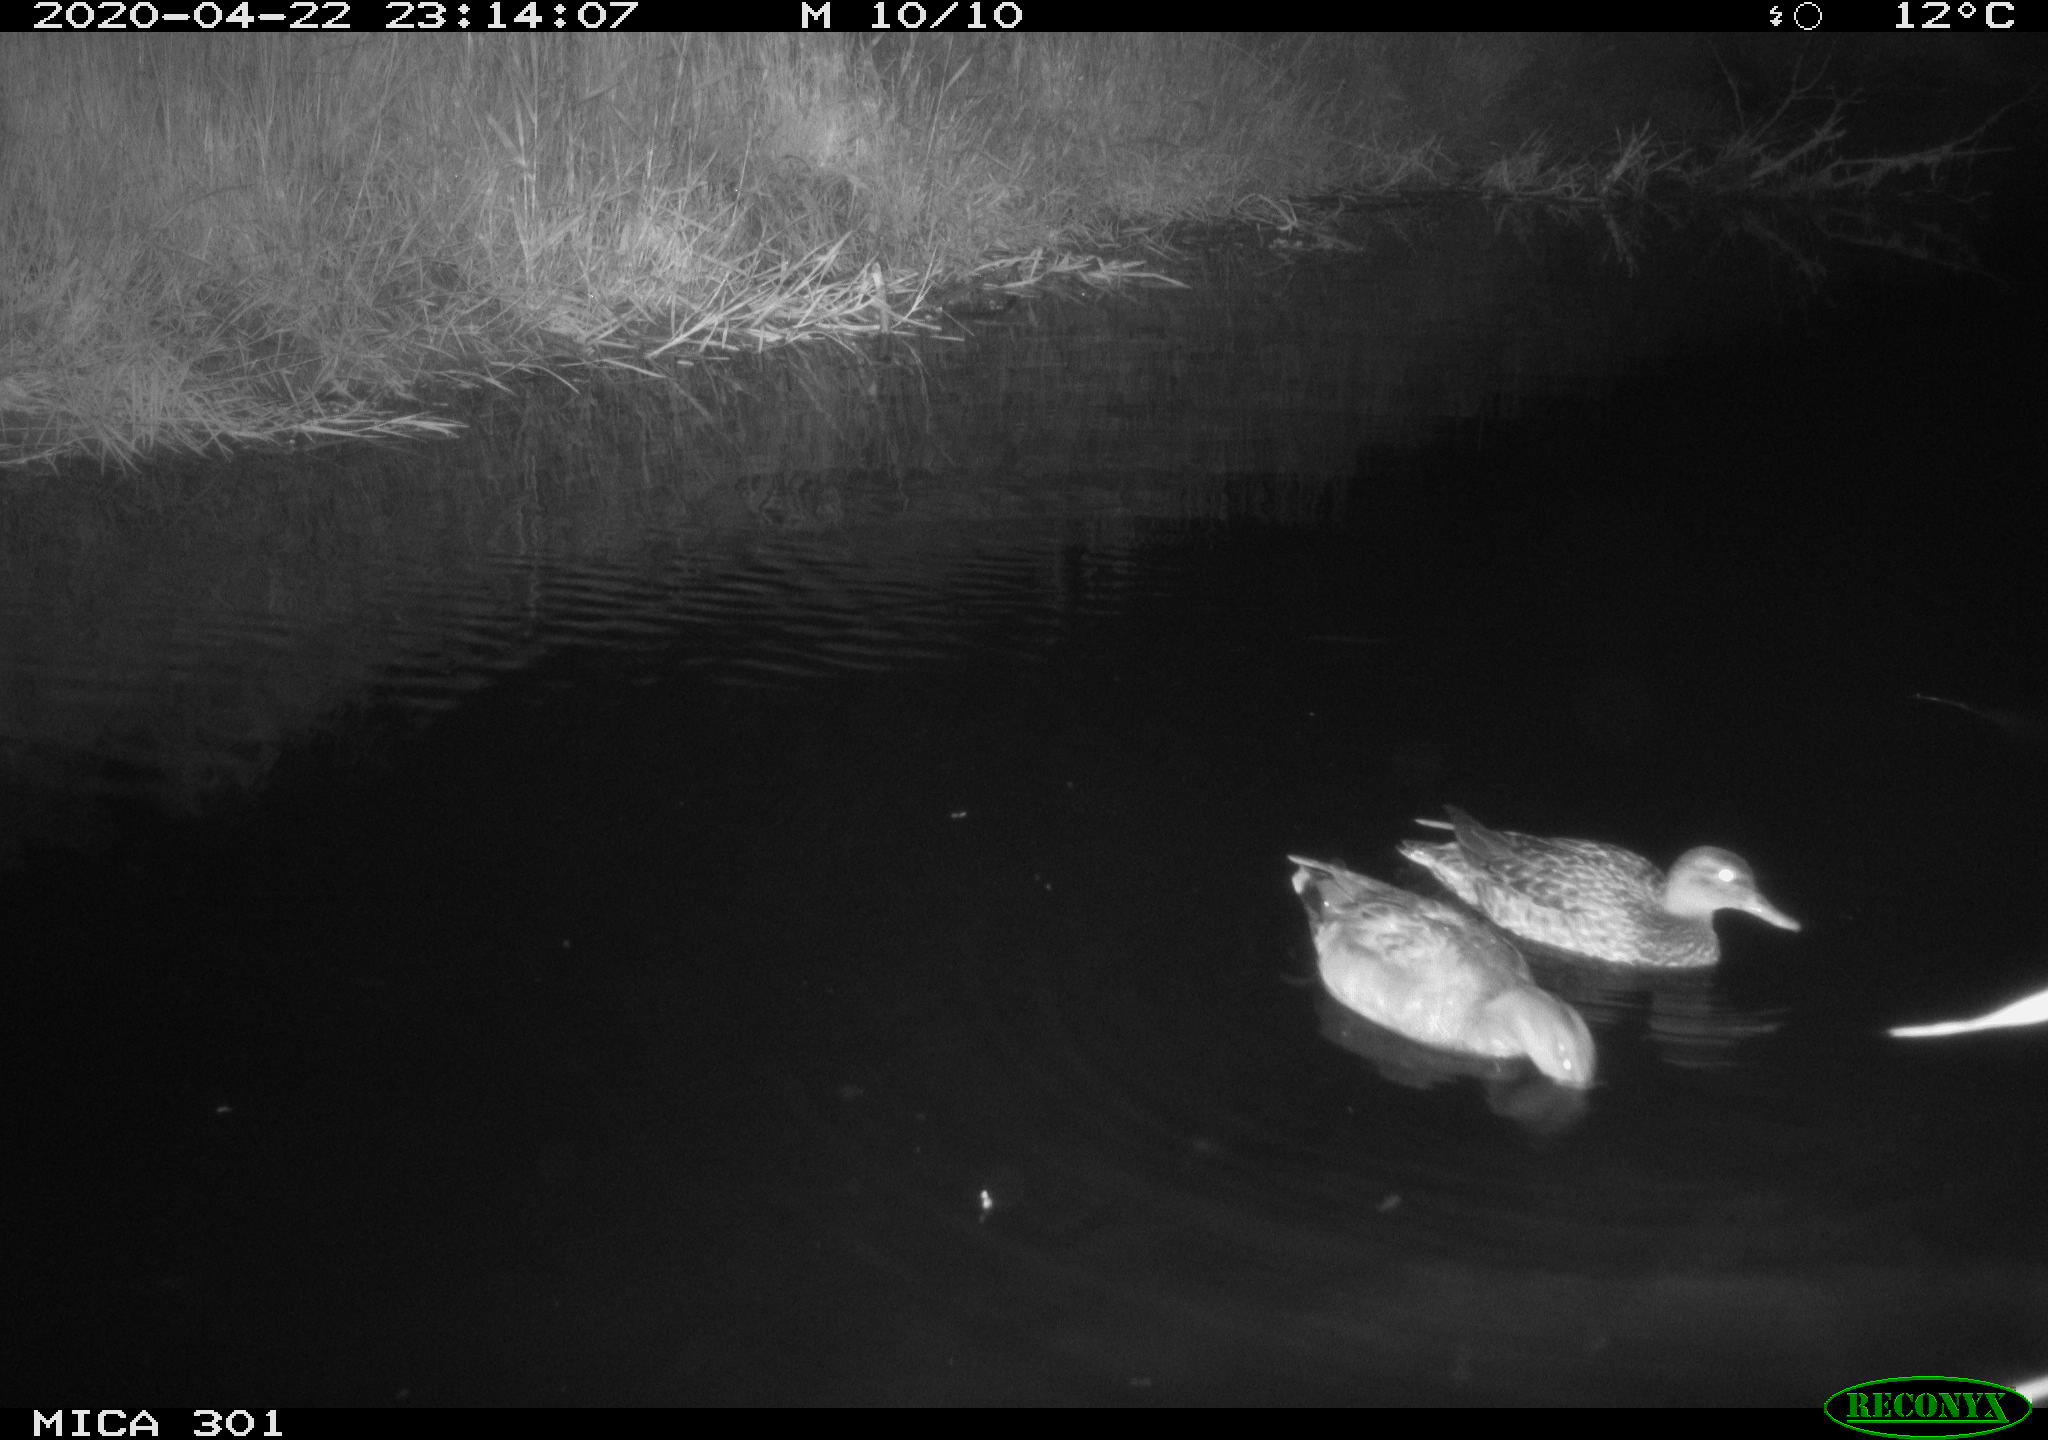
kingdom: Animalia
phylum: Chordata
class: Aves
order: Anseriformes
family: Anatidae
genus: Mareca
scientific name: Mareca strepera
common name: Gadwall
